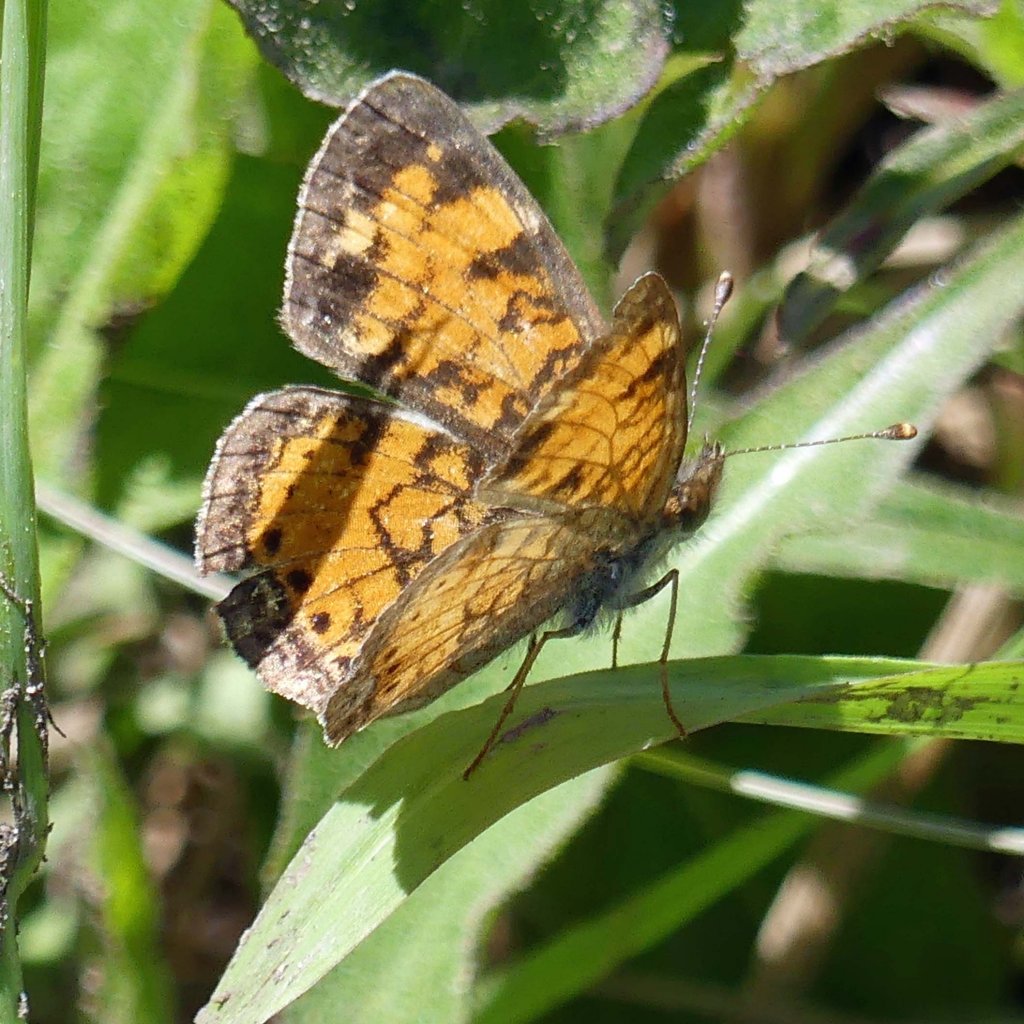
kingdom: Animalia
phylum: Arthropoda
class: Insecta
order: Lepidoptera
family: Nymphalidae
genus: Phyciodes
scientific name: Phyciodes tharos
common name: Northern Crescent
